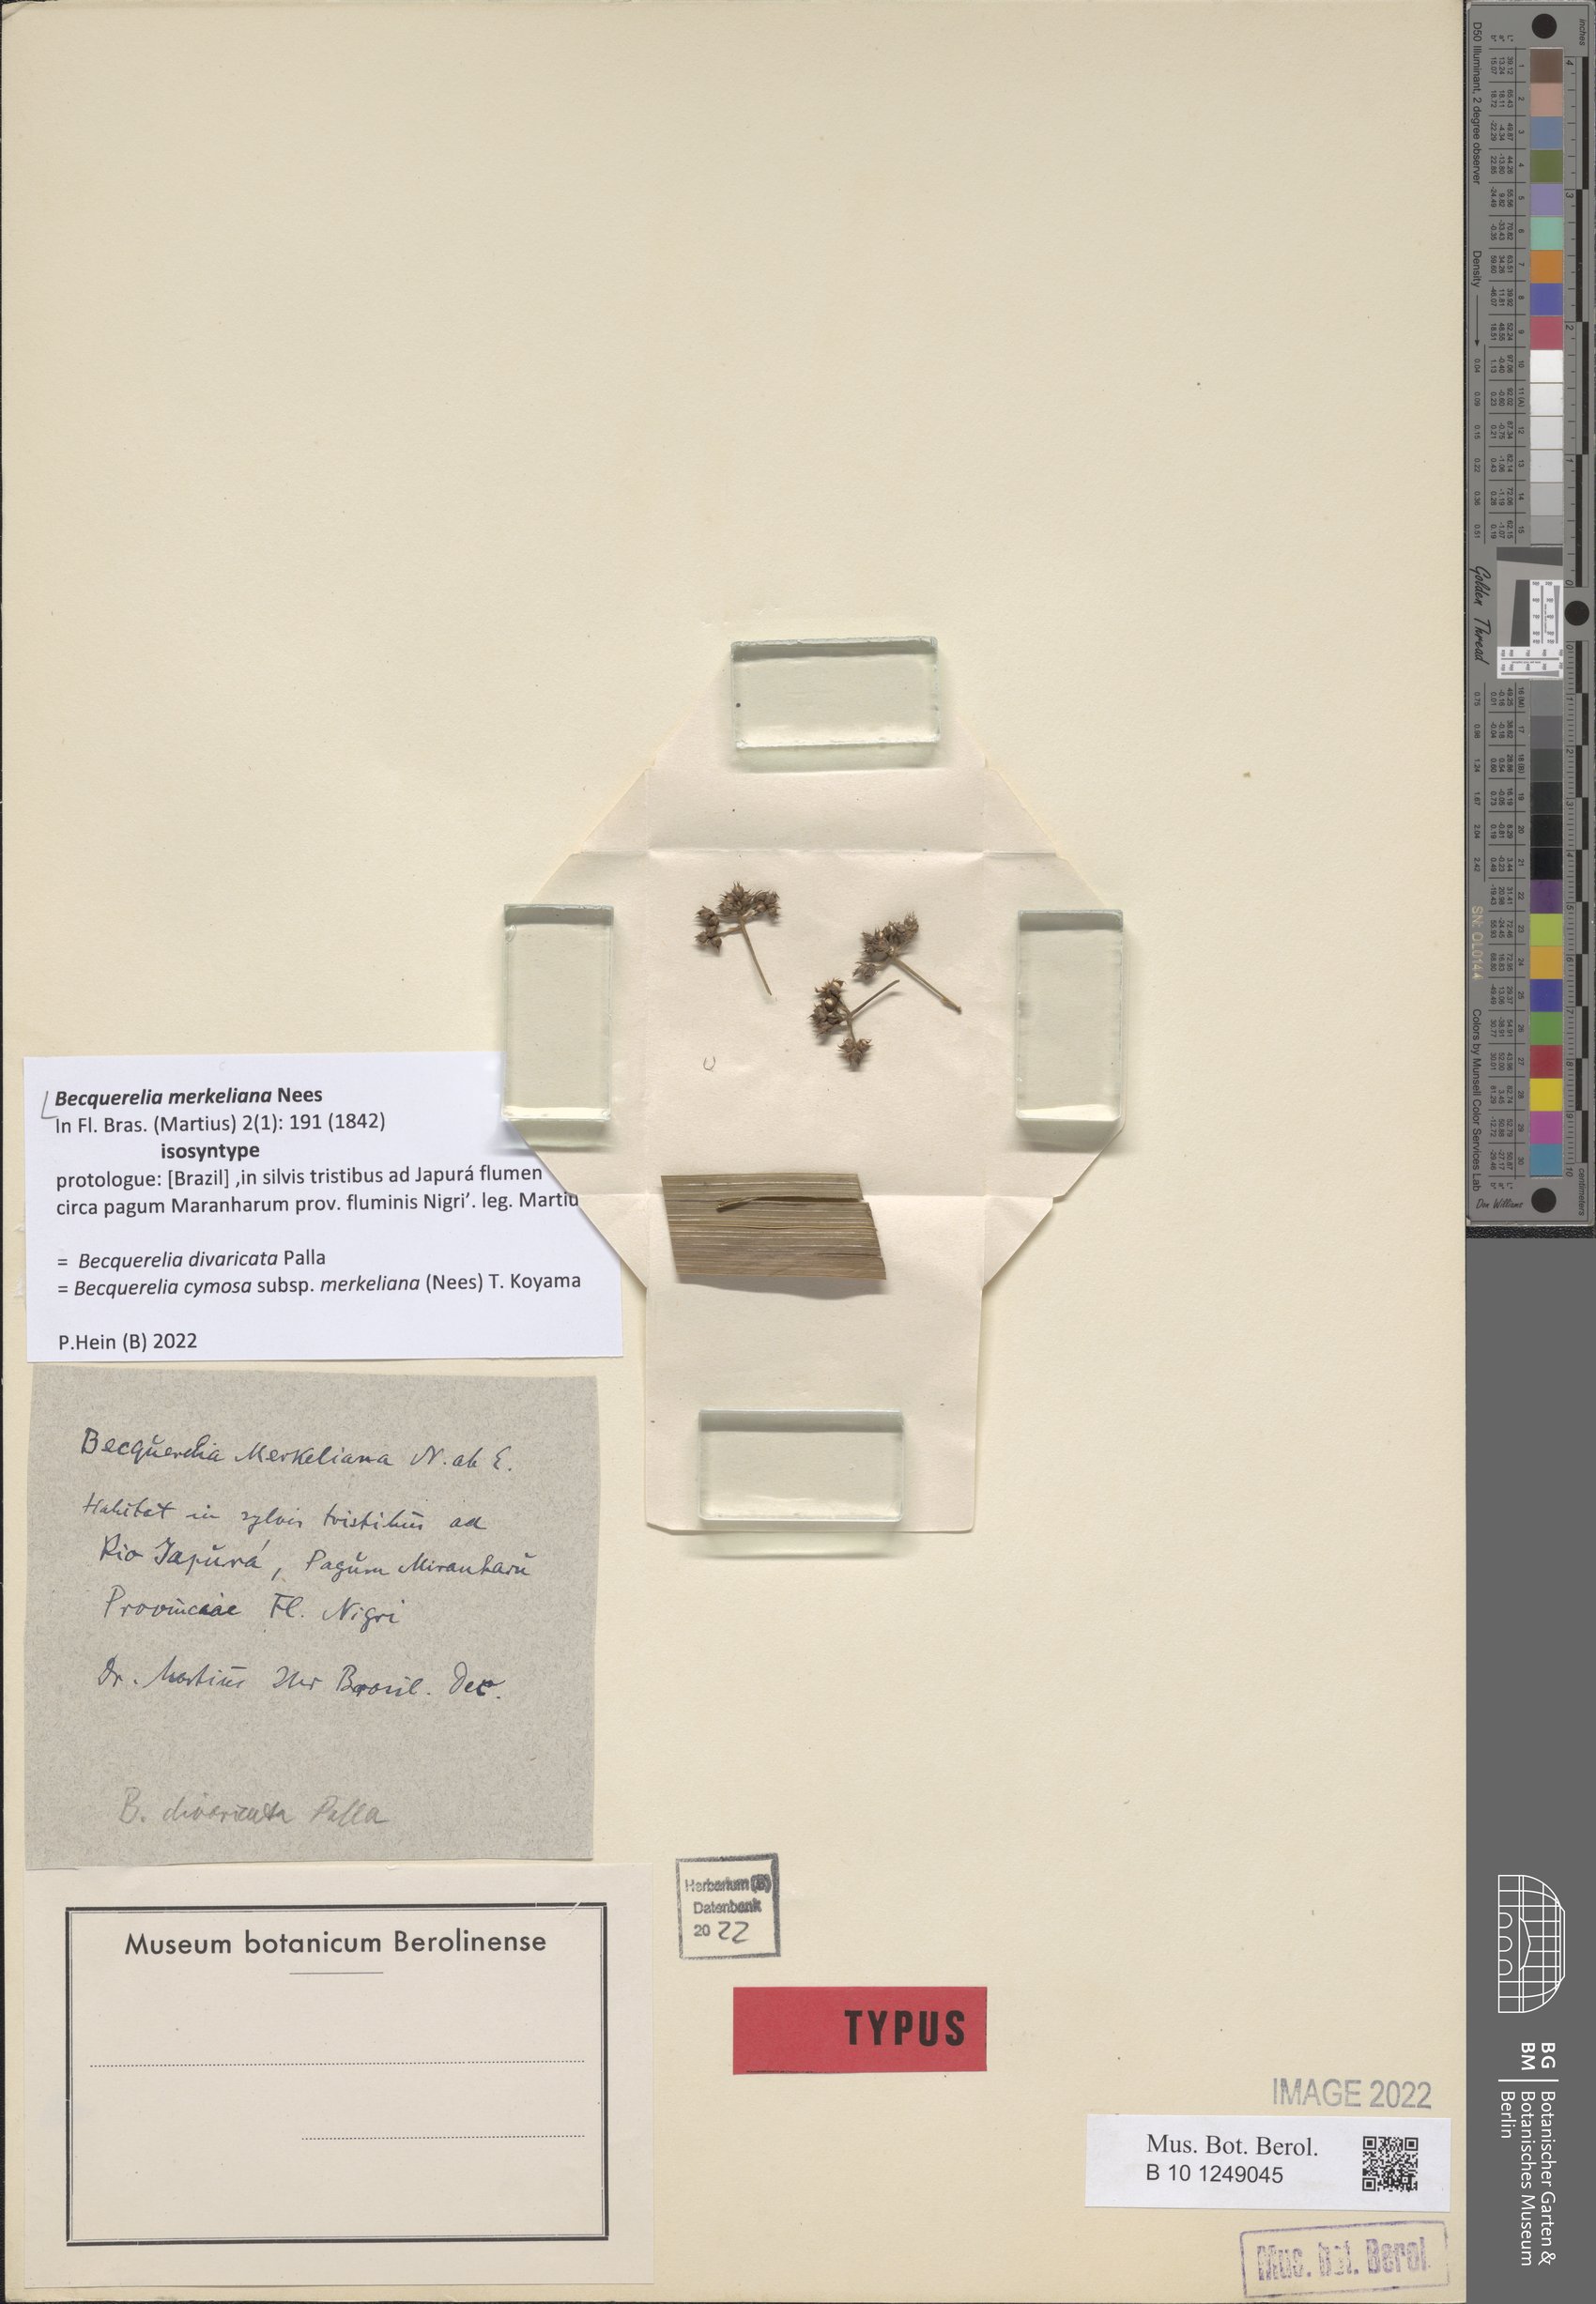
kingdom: Plantae
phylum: Tracheophyta
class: Liliopsida
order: Poales
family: Cyperaceae
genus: Becquerelia
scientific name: Becquerelia merkeliana
